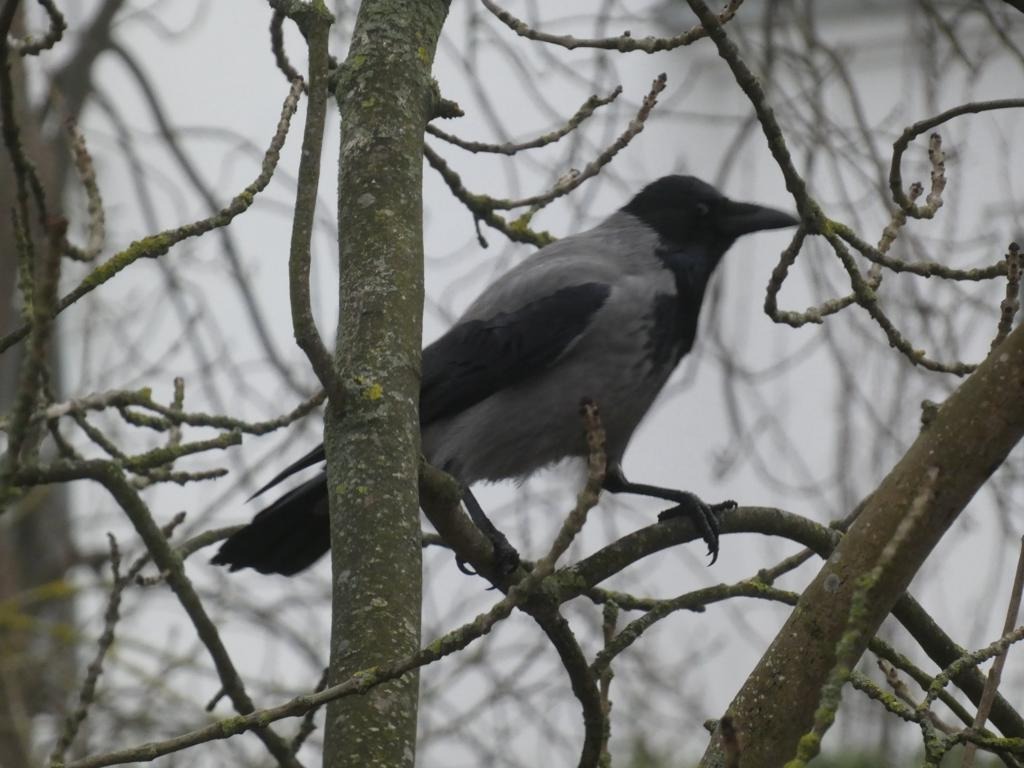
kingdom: Animalia
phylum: Chordata
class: Aves
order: Passeriformes
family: Corvidae
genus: Corvus
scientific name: Corvus cornix
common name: Gråkrage
